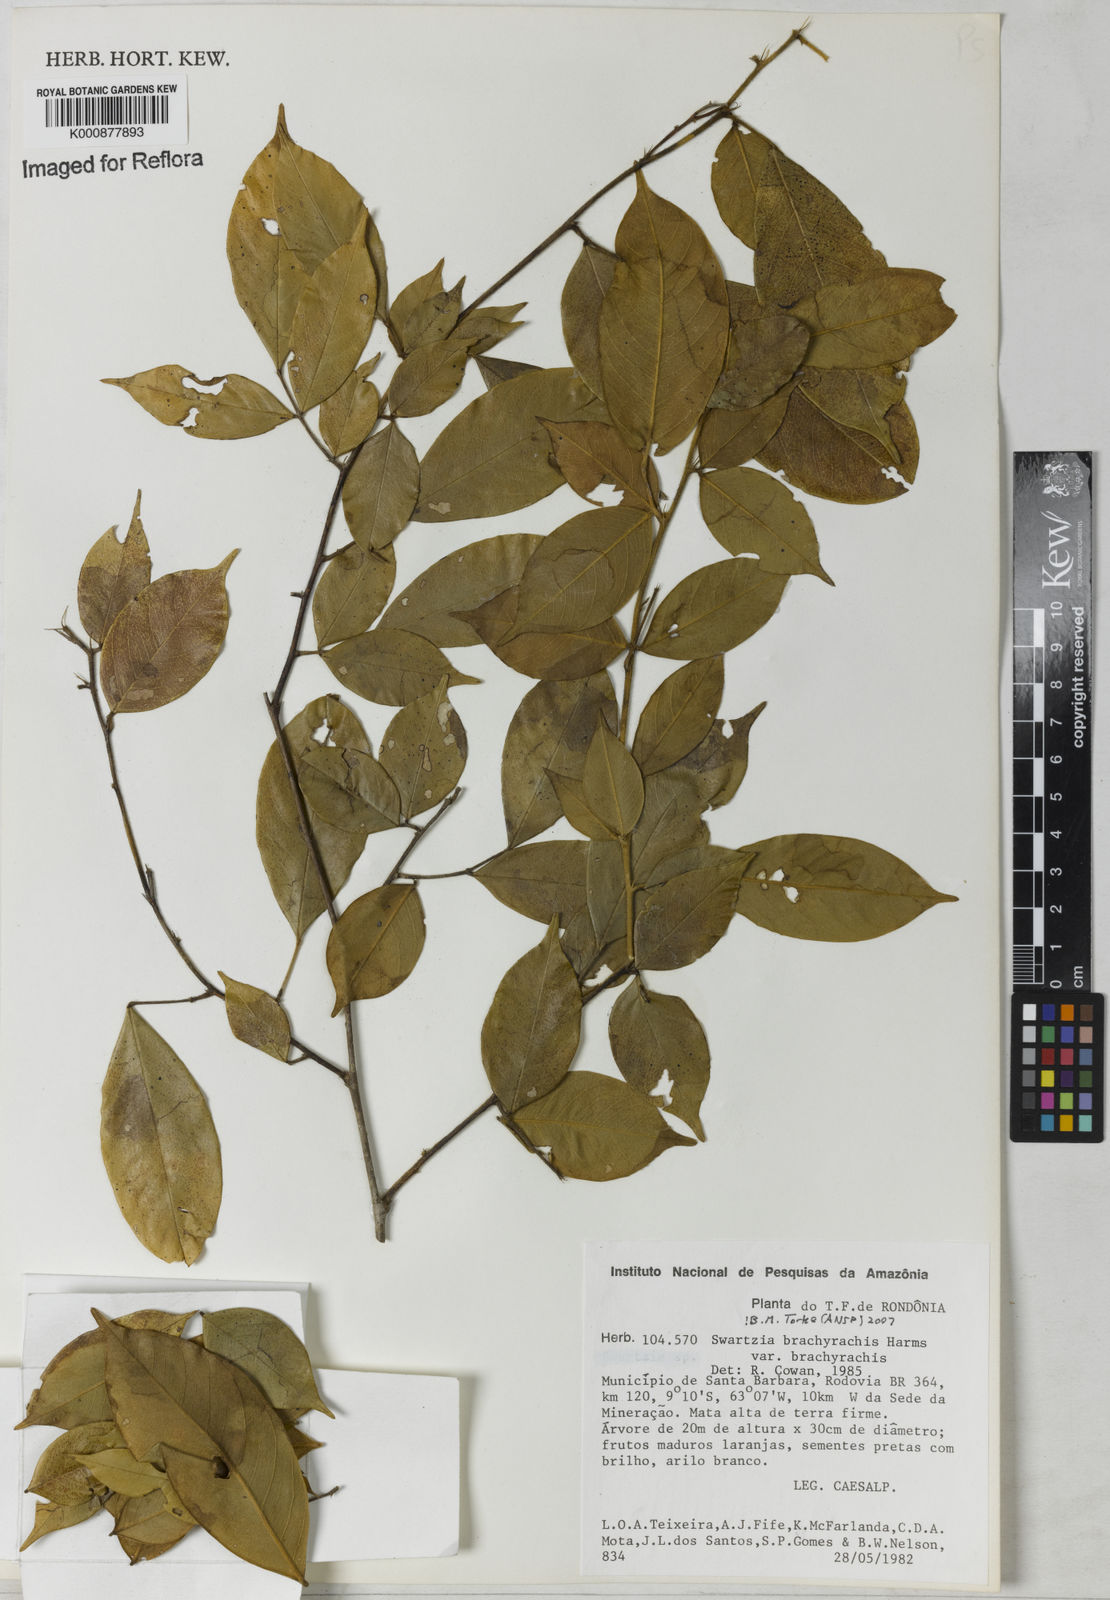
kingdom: Plantae
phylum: Tracheophyta
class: Magnoliopsida
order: Fabales
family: Fabaceae
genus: Swartzia
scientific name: Swartzia
